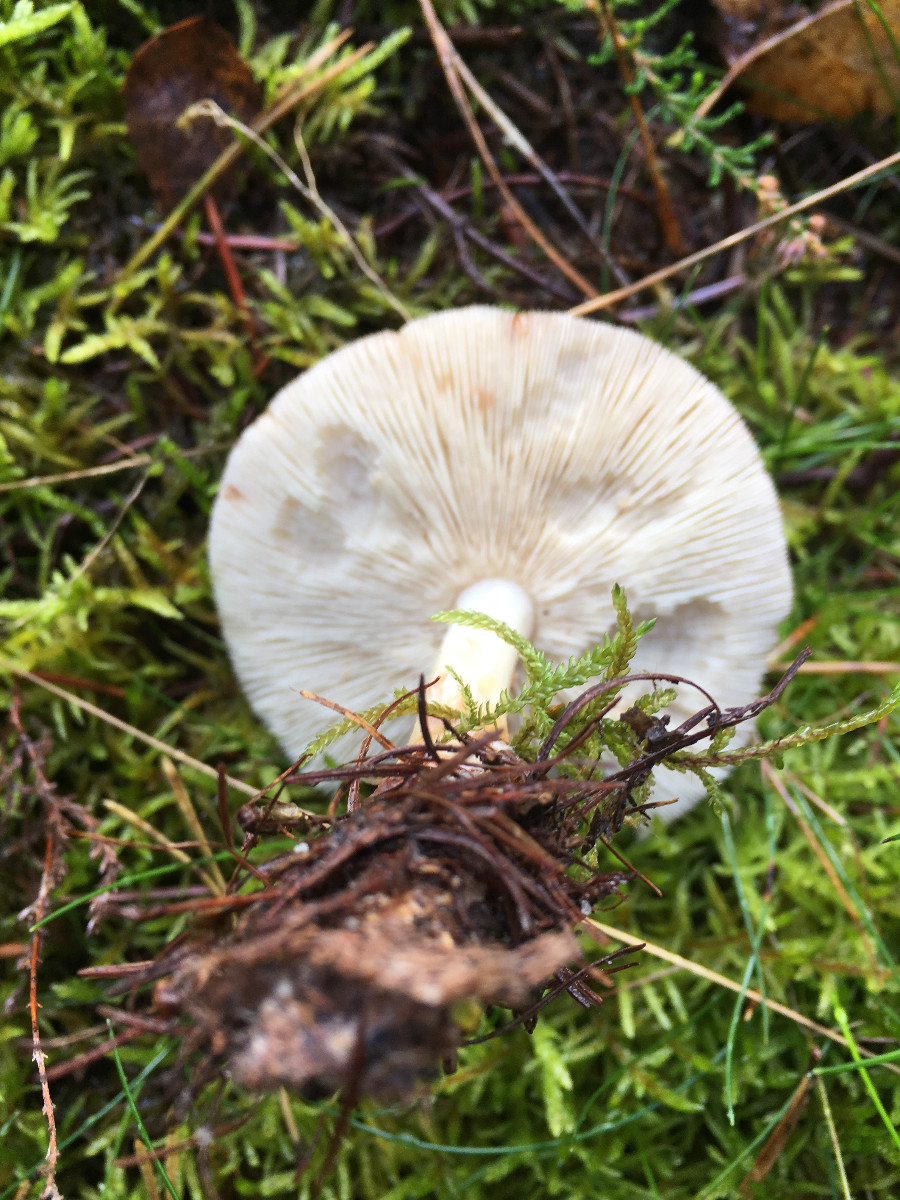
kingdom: Fungi
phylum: Basidiomycota
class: Agaricomycetes
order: Agaricales
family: Omphalotaceae
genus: Rhodocollybia
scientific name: Rhodocollybia maculata
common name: plettet fladhat
